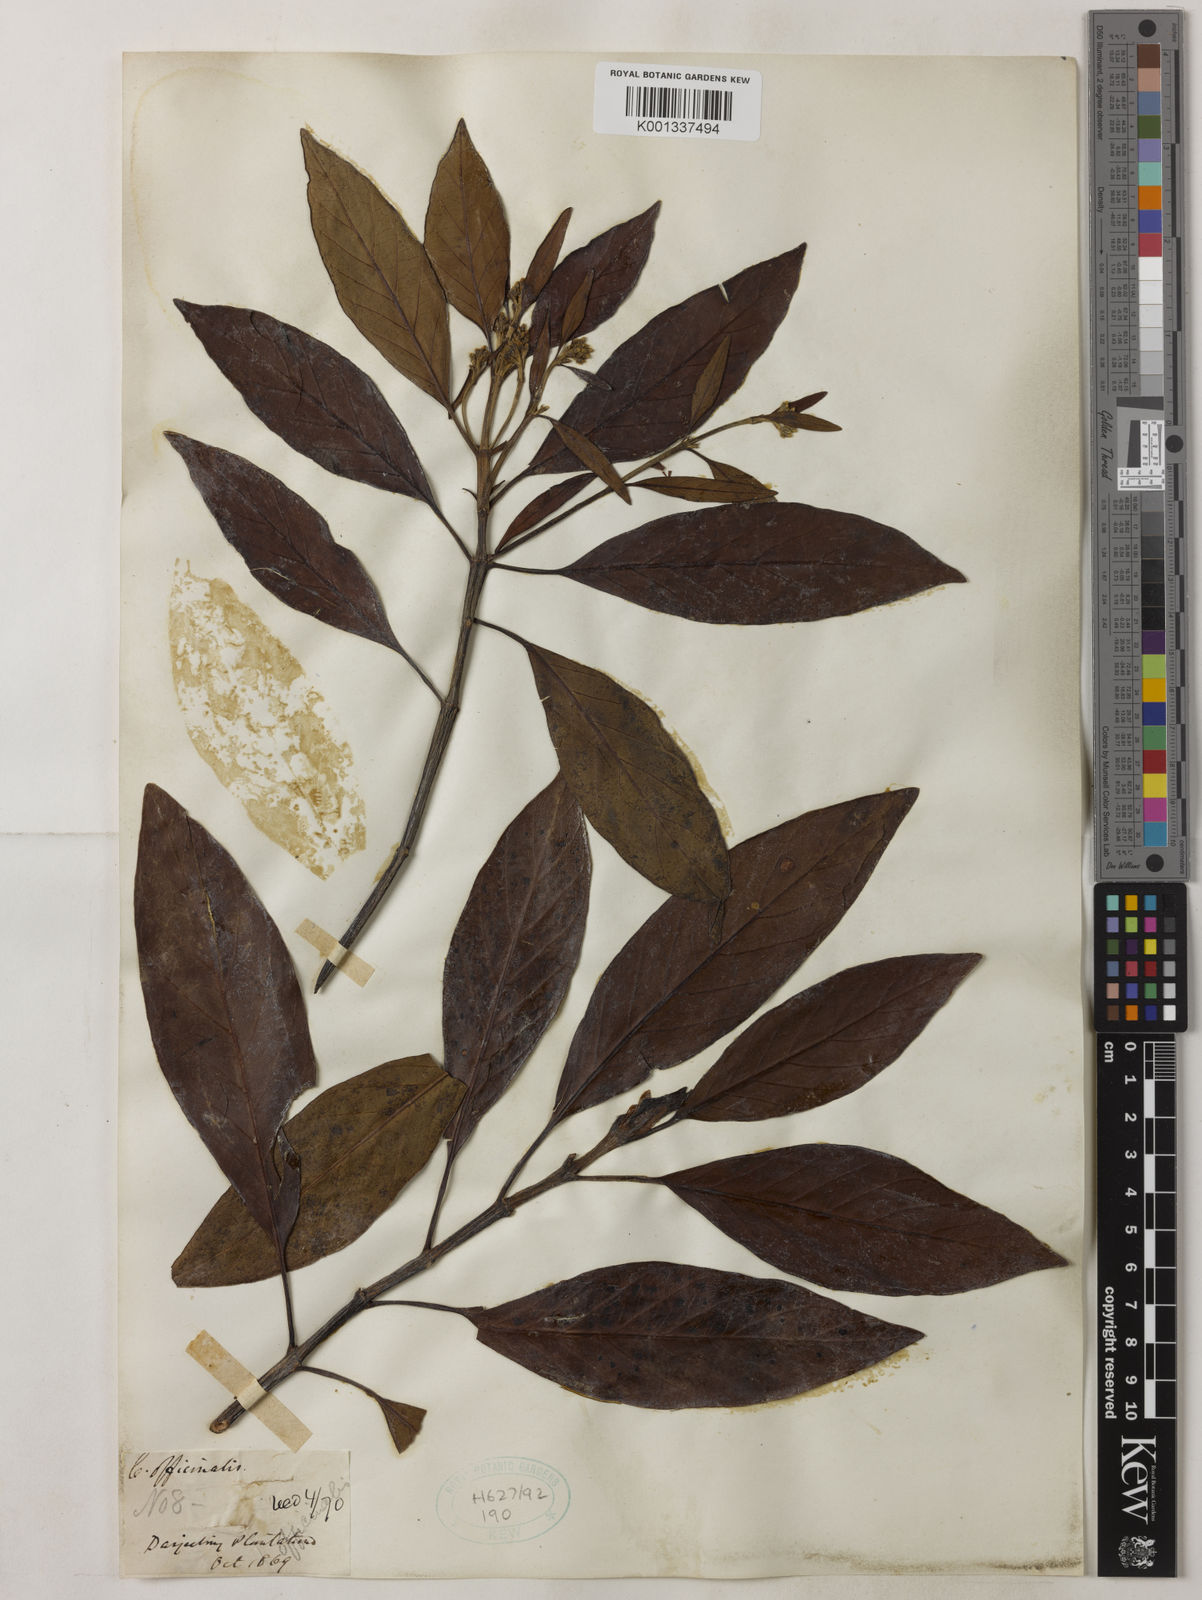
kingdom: Plantae
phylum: Tracheophyta
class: Magnoliopsida
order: Gentianales
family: Rubiaceae
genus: Cinchona
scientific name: Cinchona officinalis
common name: Lojabark
